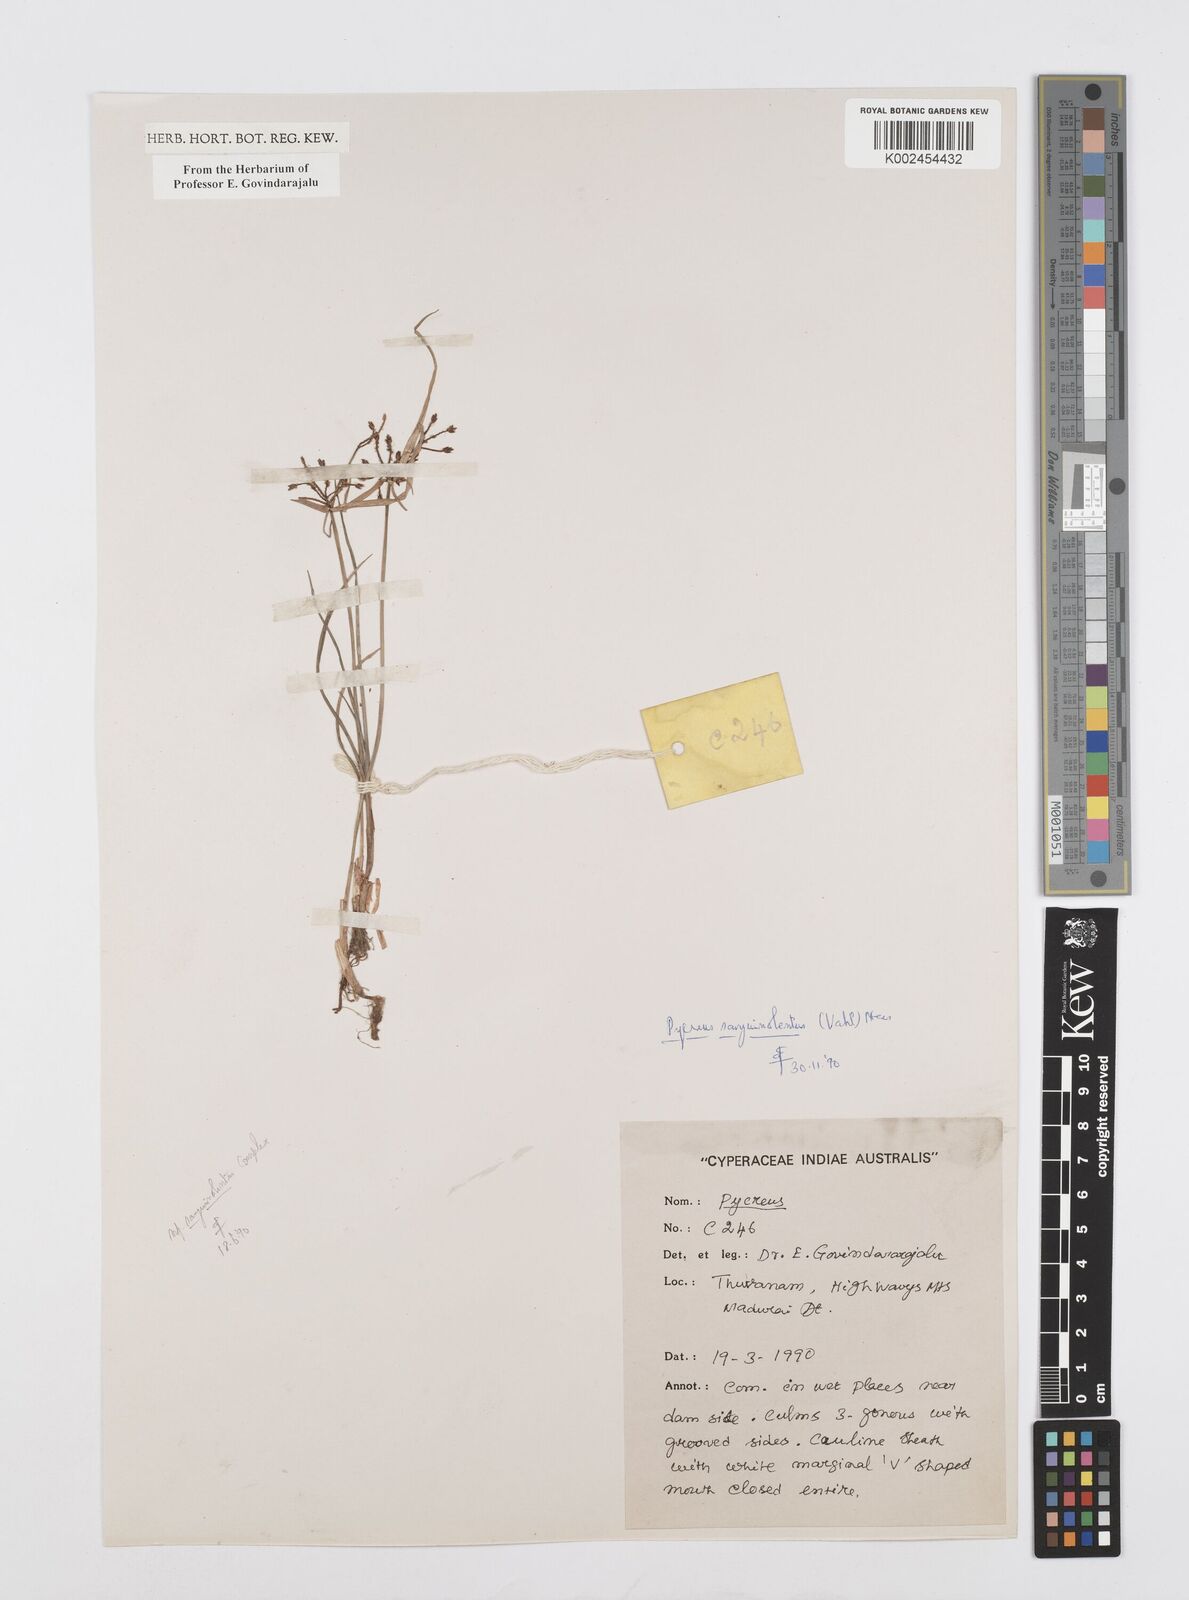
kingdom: Plantae
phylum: Tracheophyta
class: Liliopsida
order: Poales
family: Cyperaceae
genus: Cyperus
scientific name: Cyperus sanguinolentus
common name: Purpleglume flatsedge
